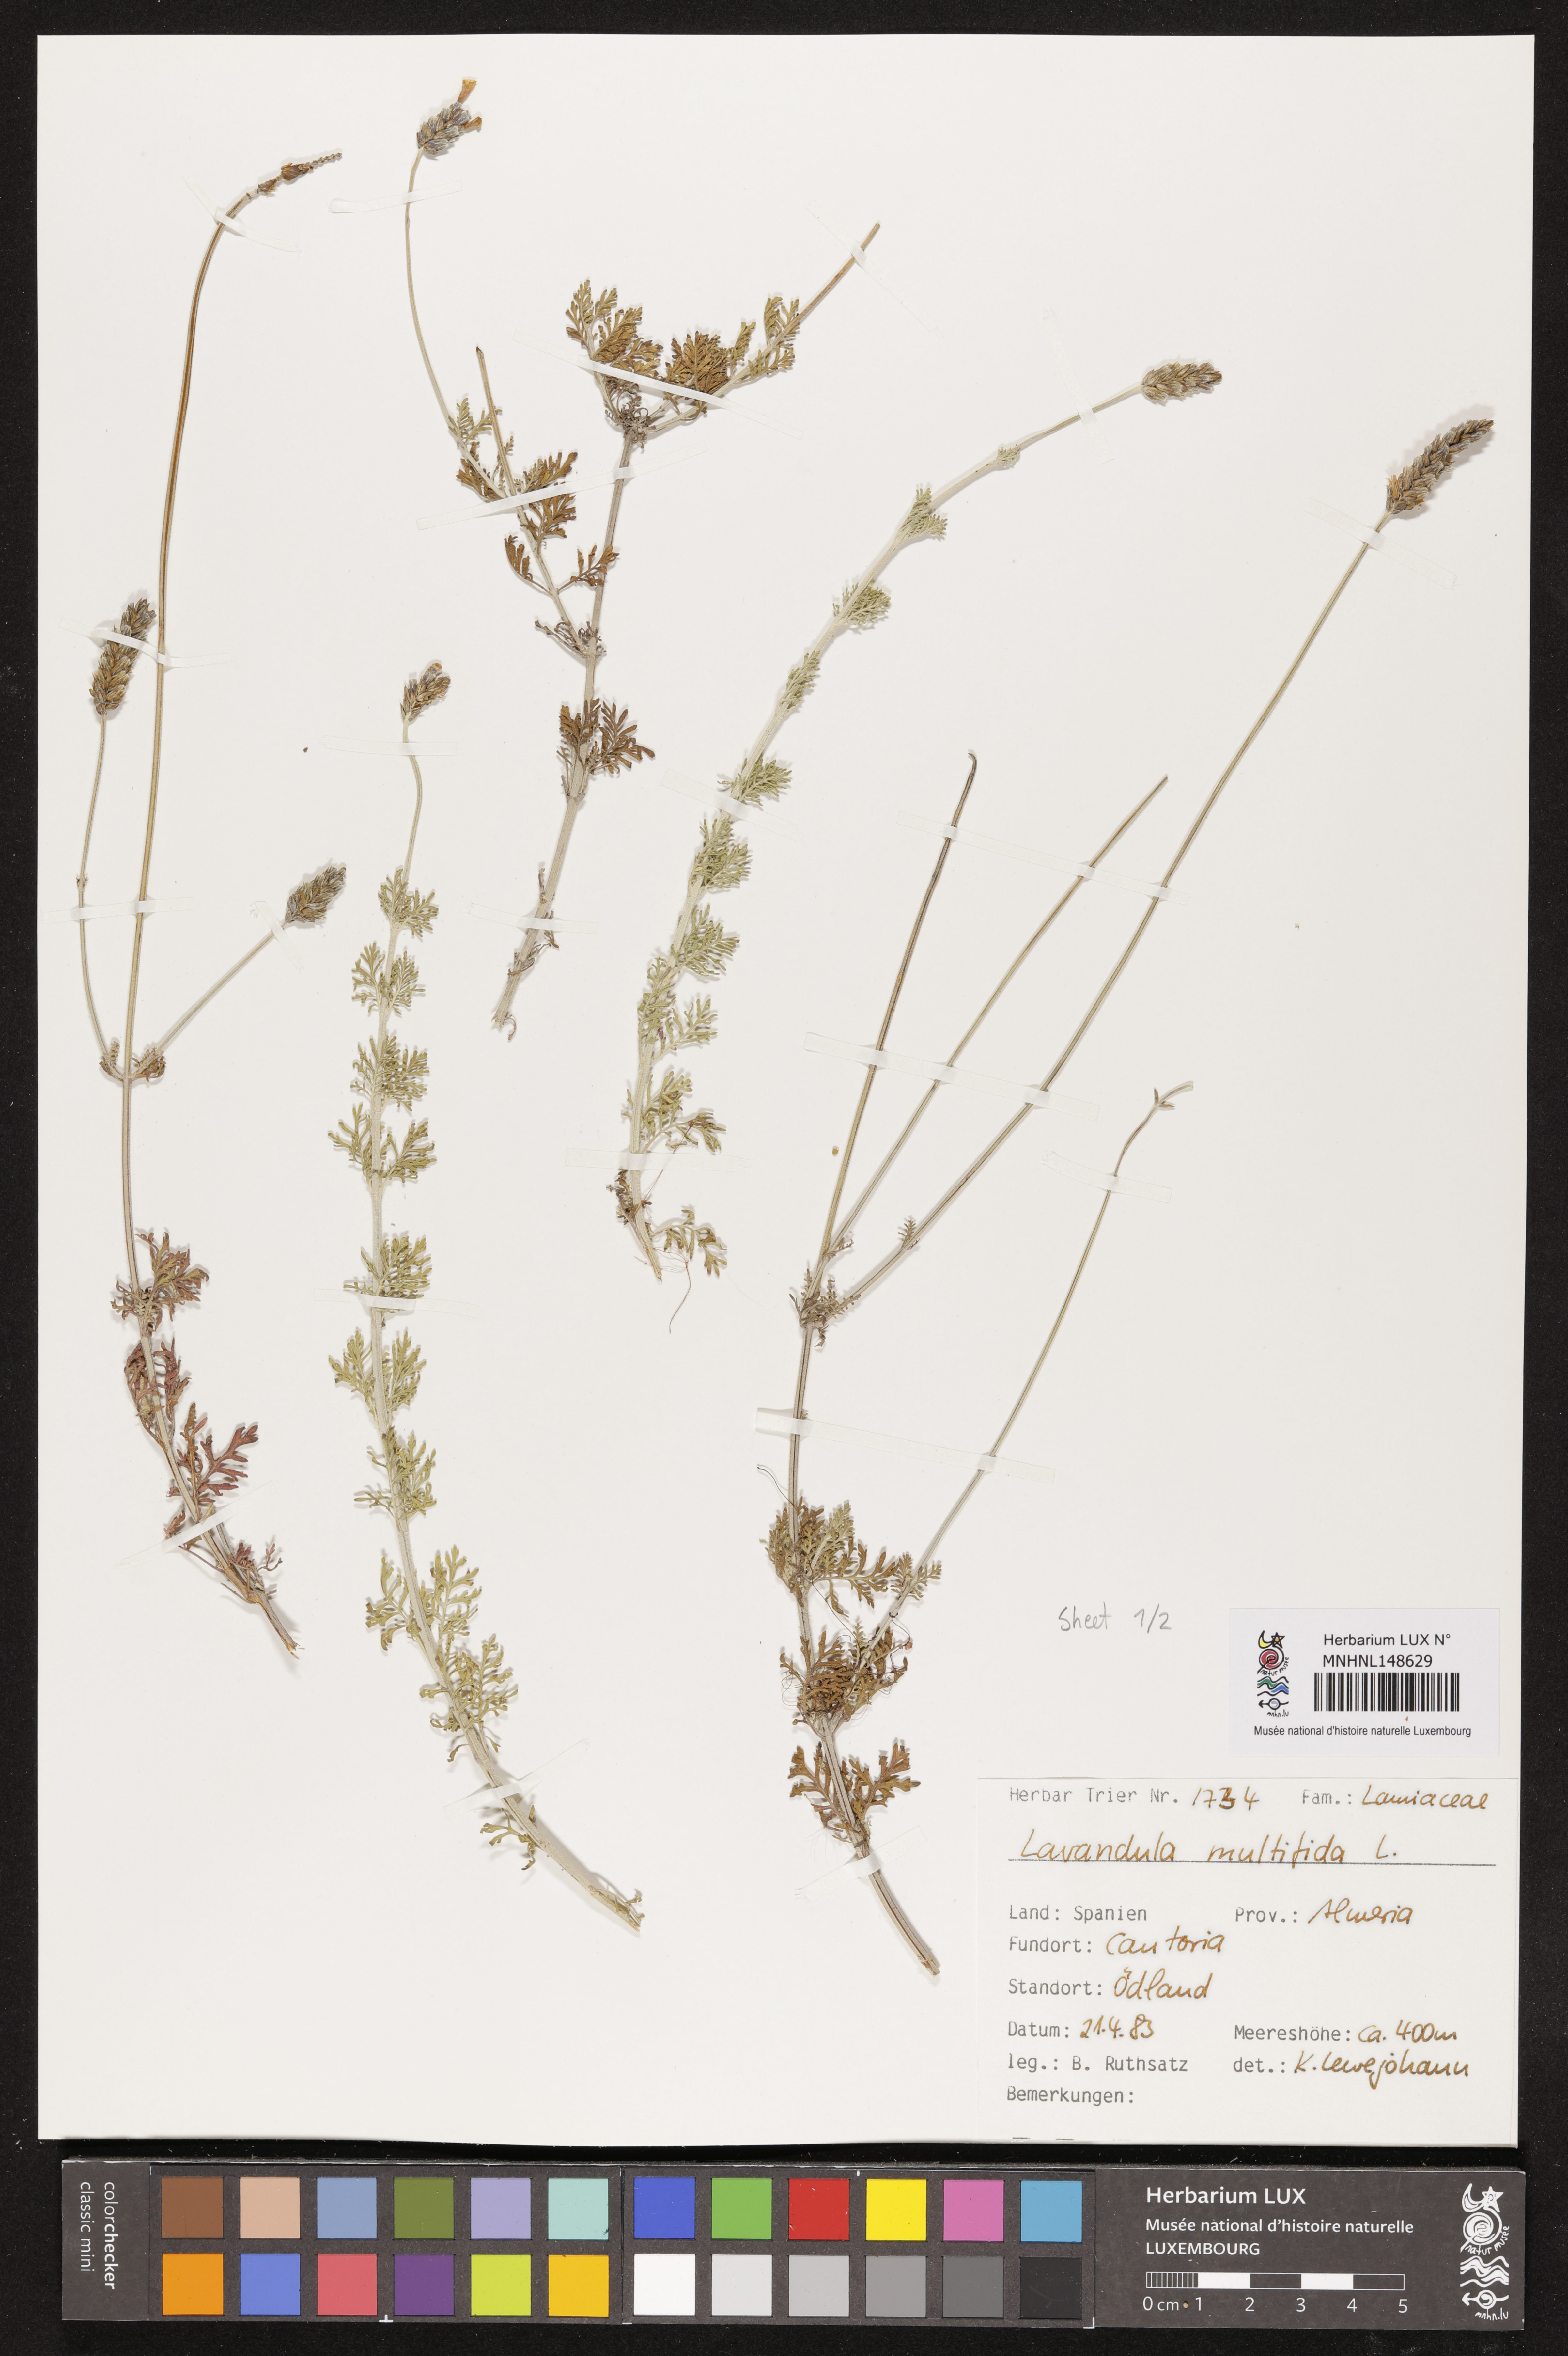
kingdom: Plantae
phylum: Tracheophyta
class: Magnoliopsida
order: Lamiales
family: Lamiaceae
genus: Lavandula
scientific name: Lavandula multifida
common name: Fern-leaf lavender
